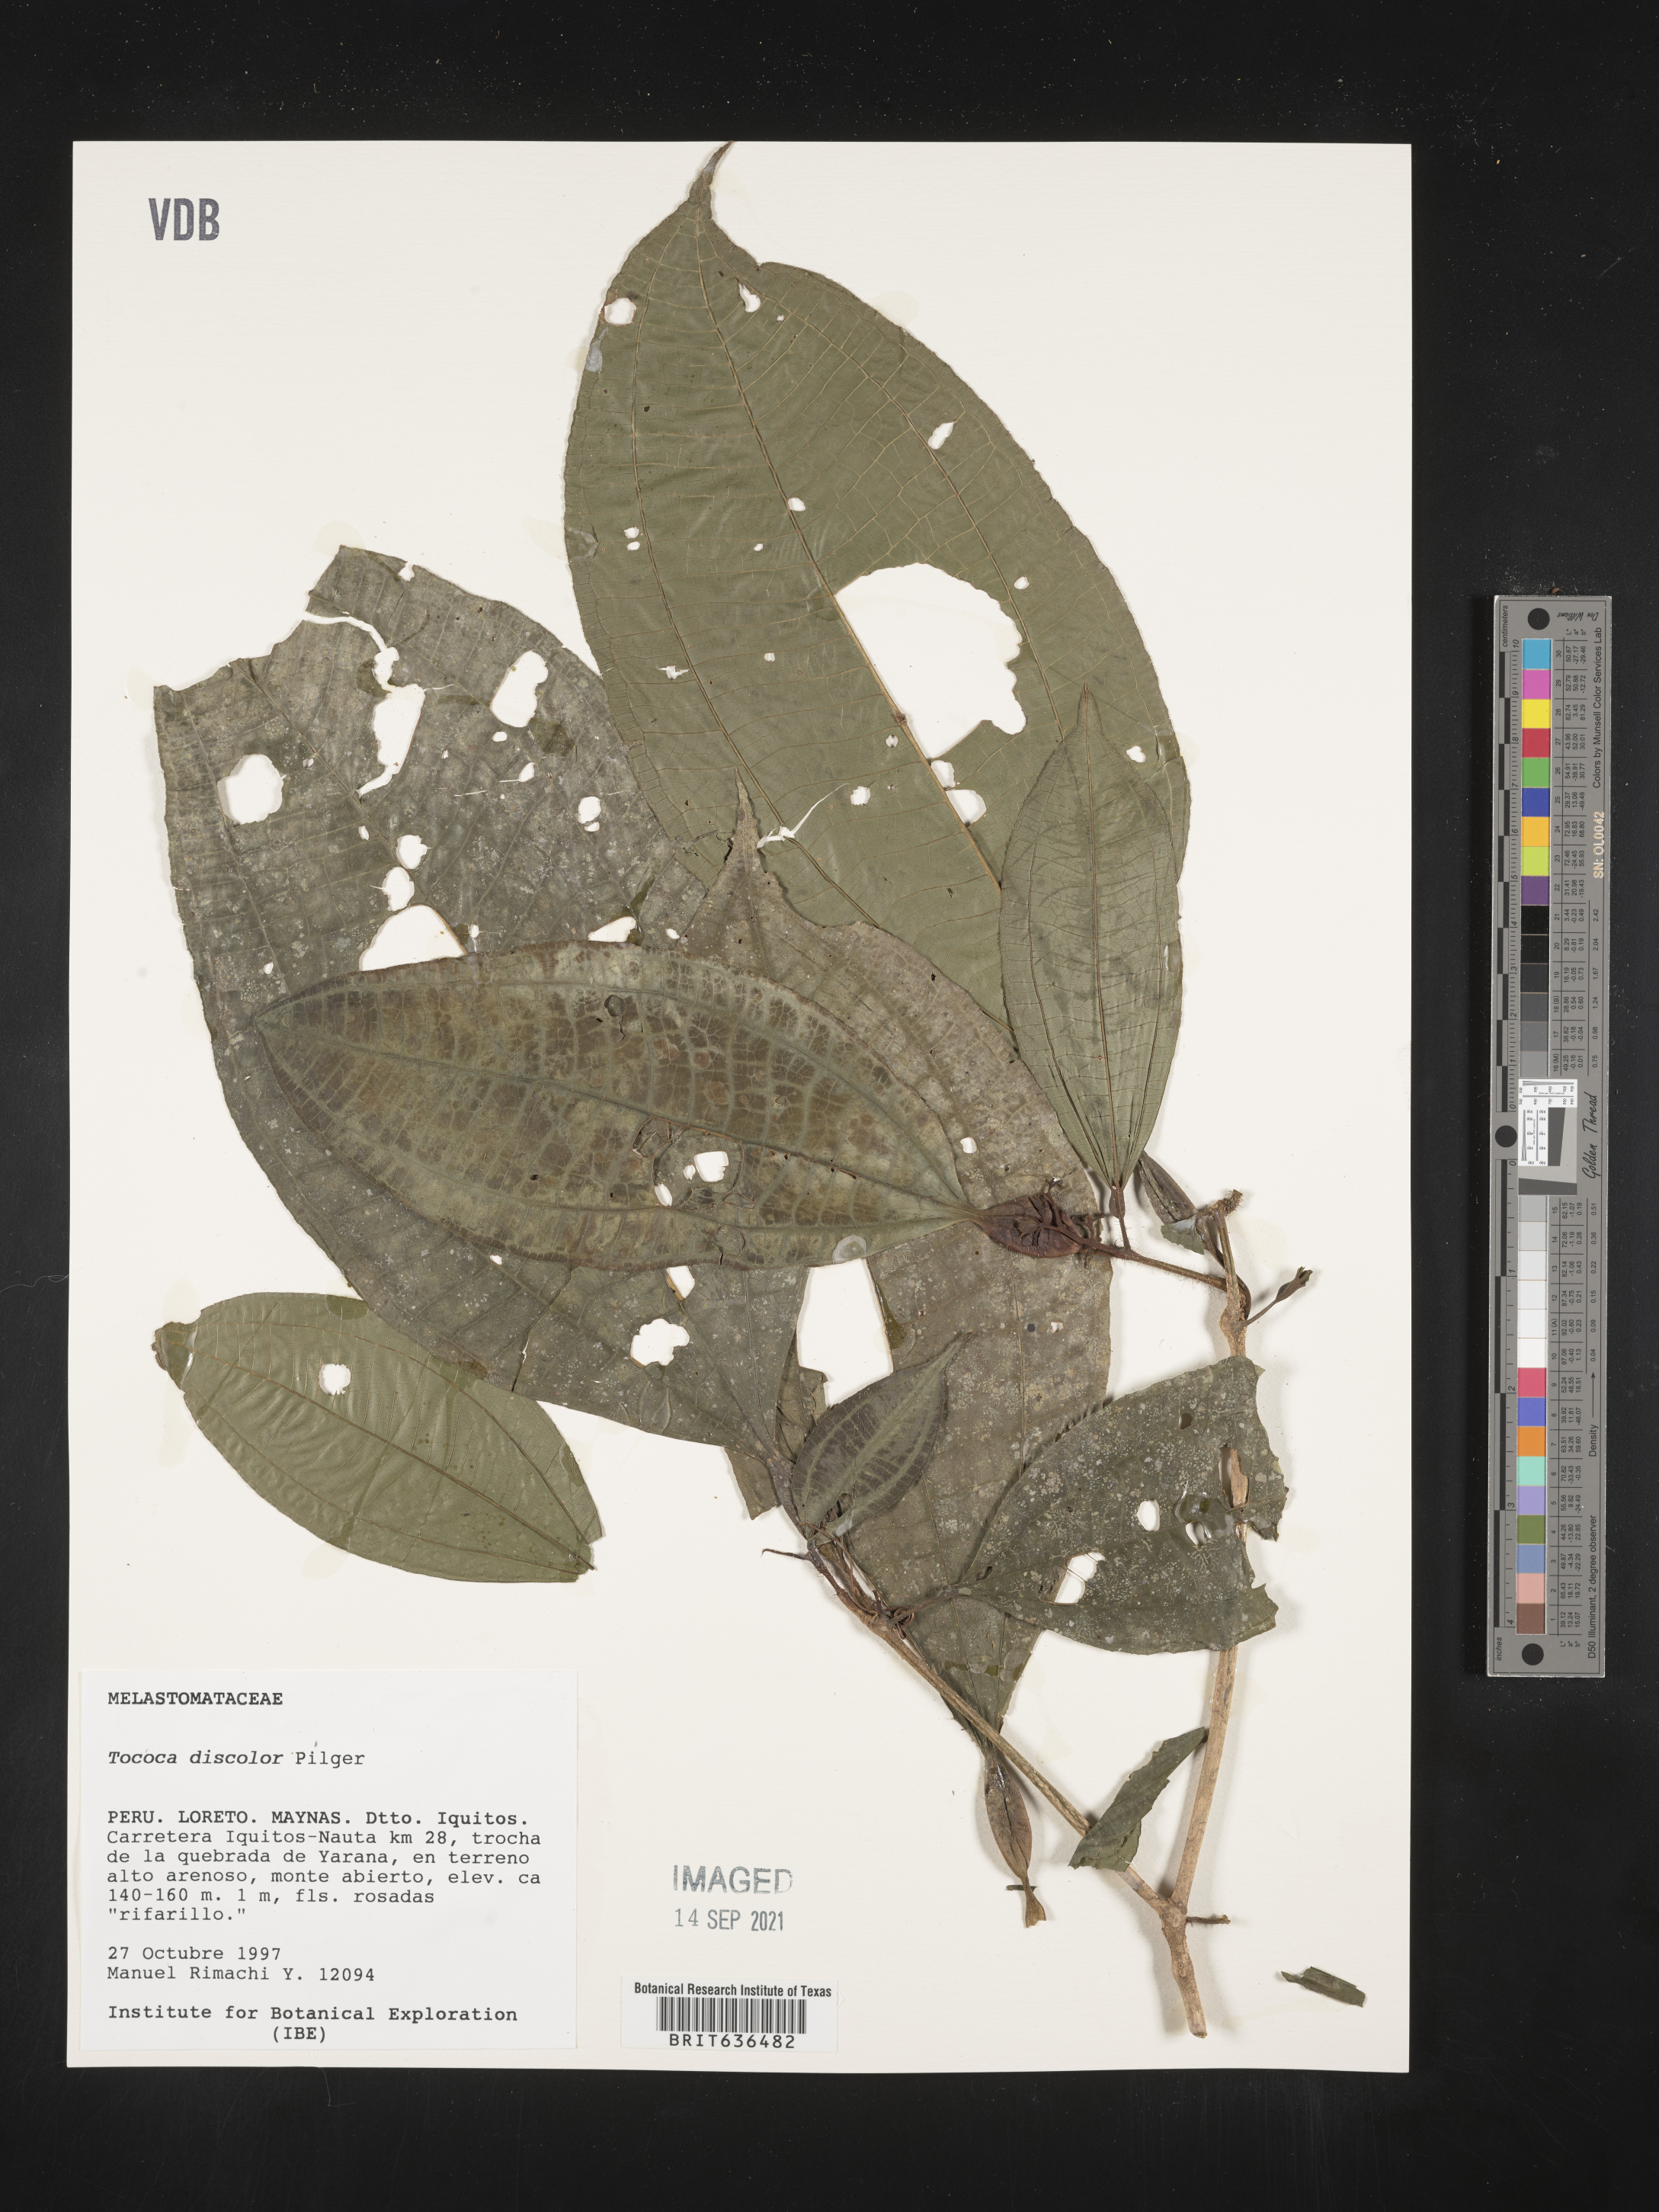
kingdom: Plantae
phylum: Tracheophyta
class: Magnoliopsida
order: Myrtales
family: Melastomataceae
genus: Tibouchina
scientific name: Tibouchina
